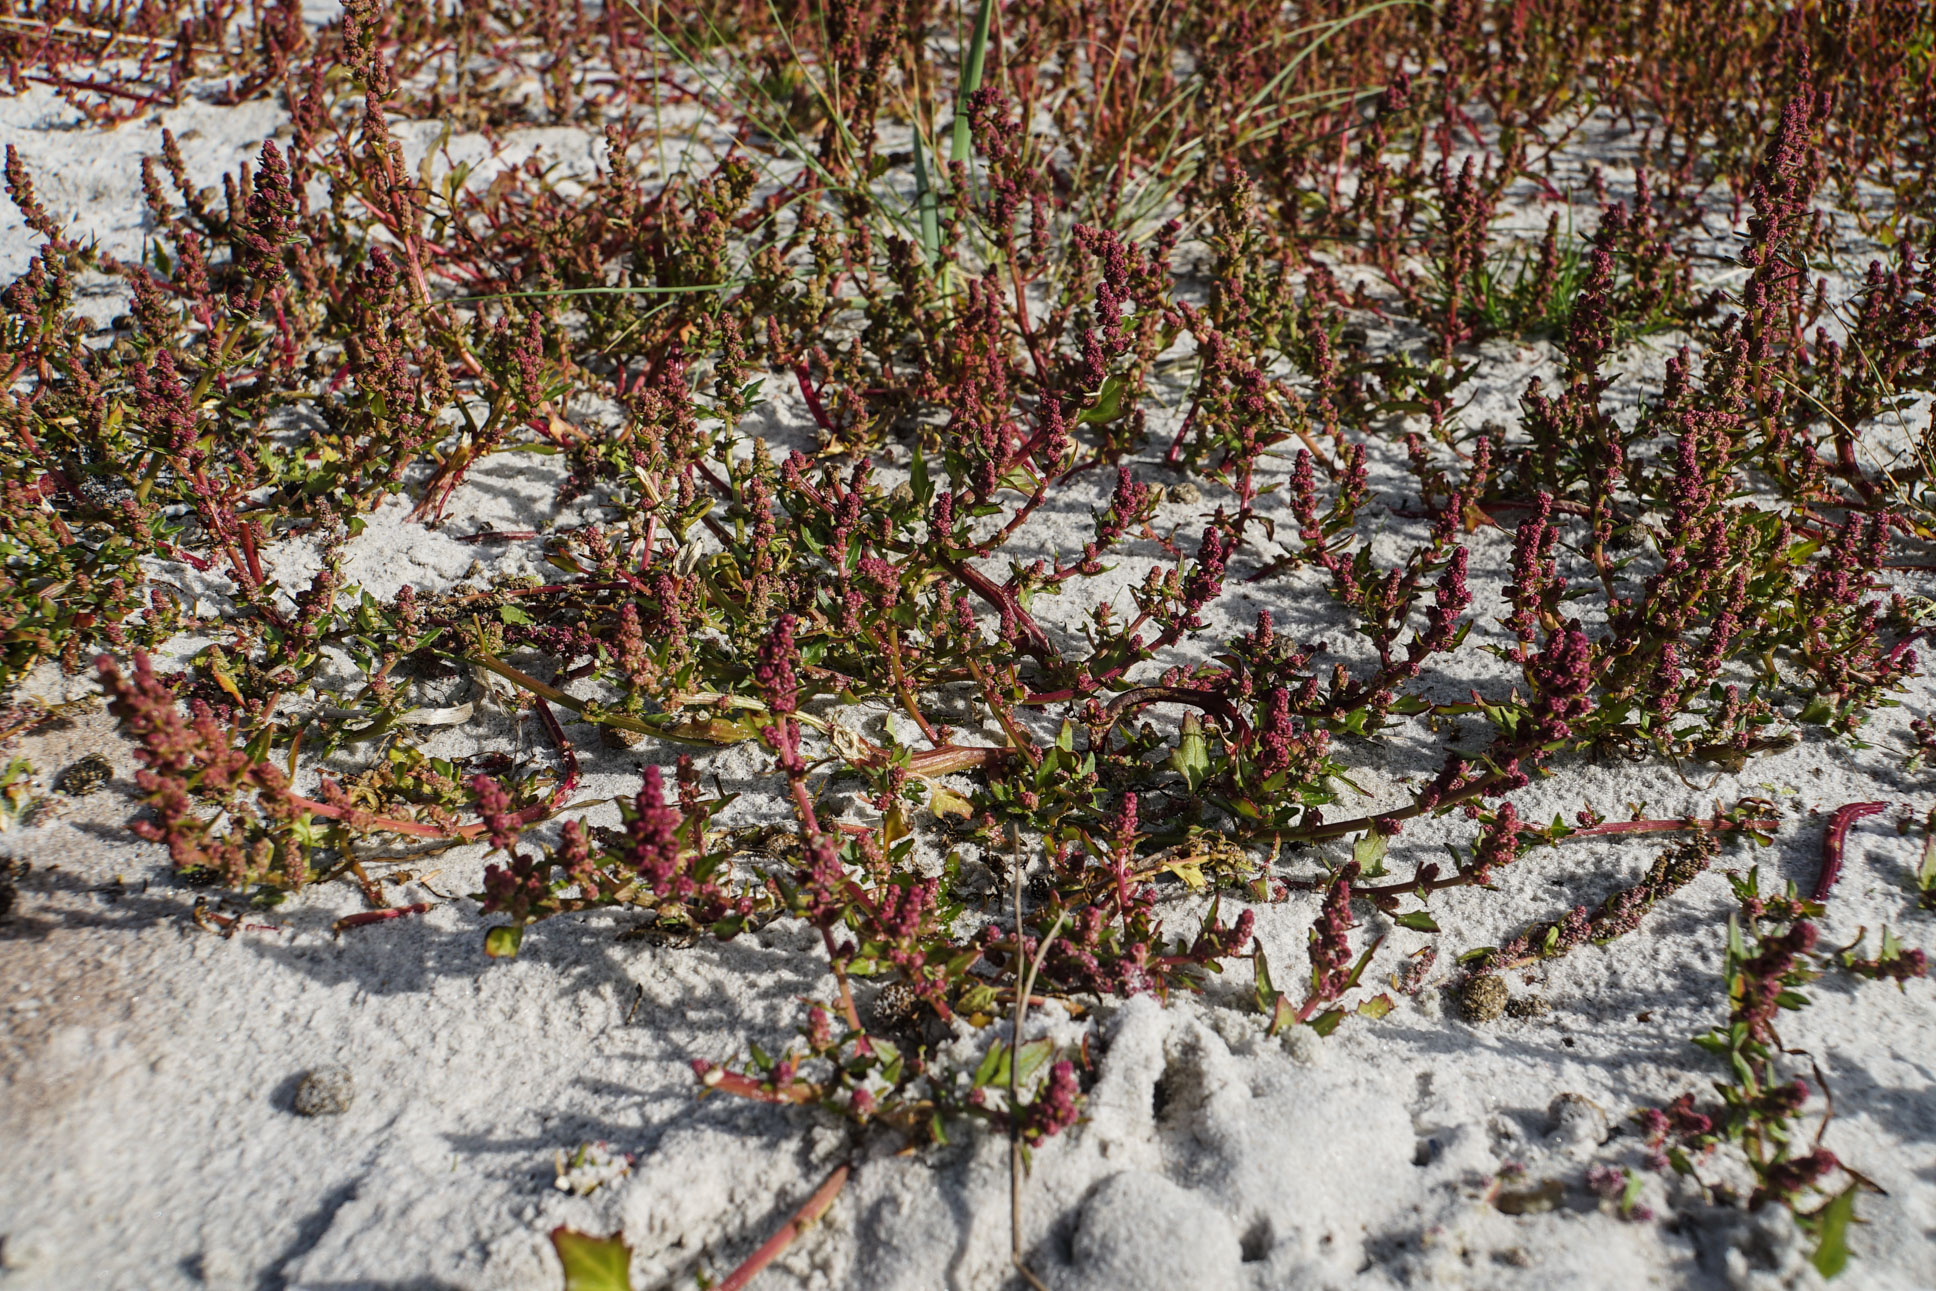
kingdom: Plantae
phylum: Tracheophyta
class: Magnoliopsida
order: Caryophyllales
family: Amaranthaceae
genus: Lipandra
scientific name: Lipandra polysperma
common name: Many-seed goosefoot
